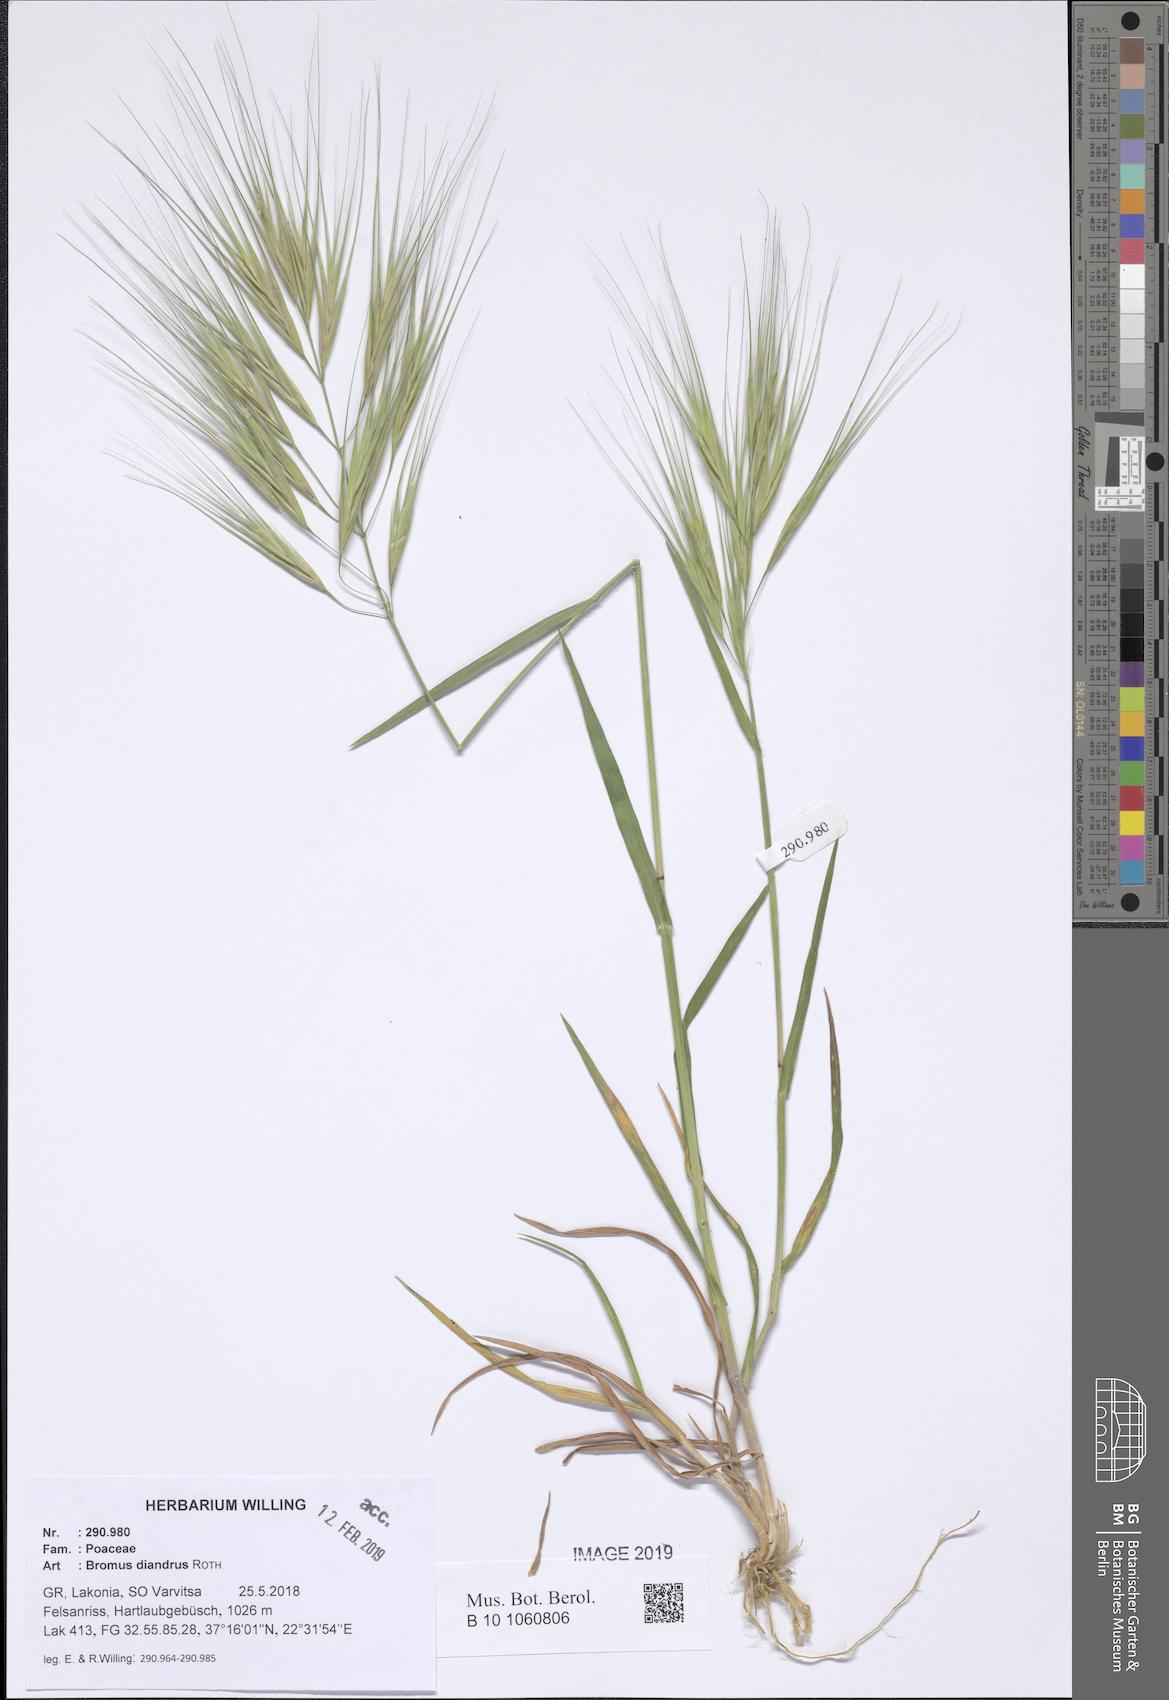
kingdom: Plantae
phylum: Tracheophyta
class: Liliopsida
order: Poales
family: Poaceae
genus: Bromus
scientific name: Bromus diandrus
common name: Ripgut brome
